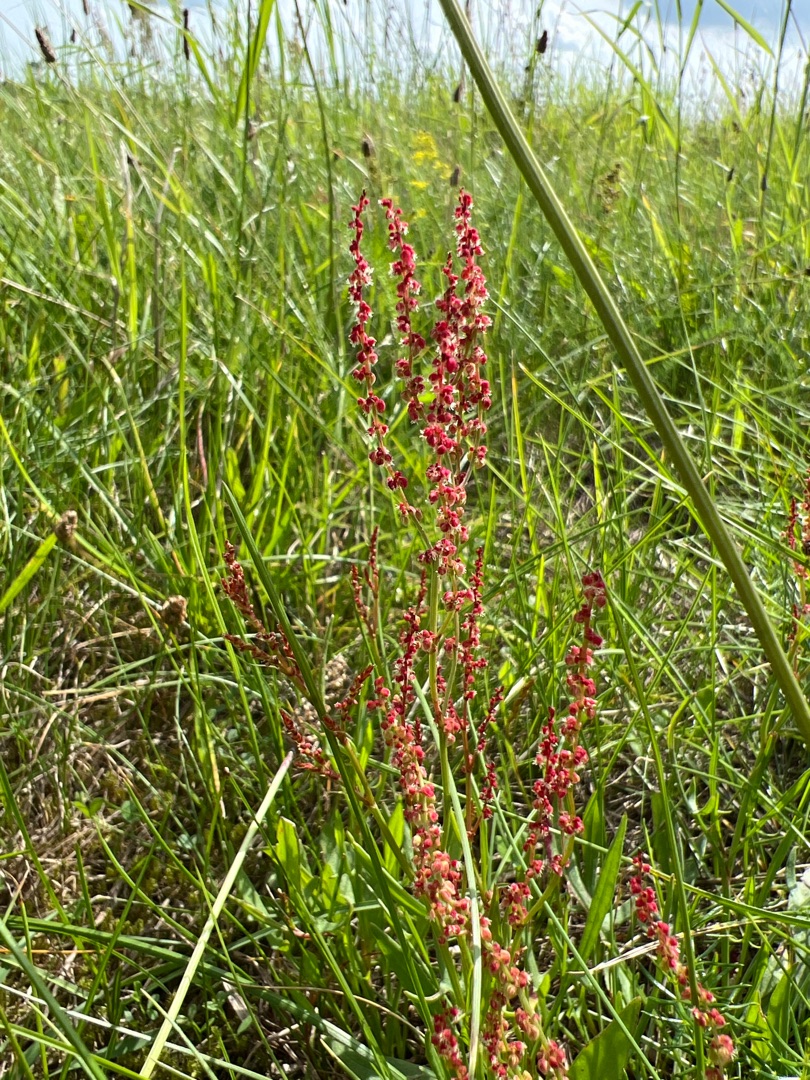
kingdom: Plantae
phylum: Tracheophyta
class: Magnoliopsida
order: Caryophyllales
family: Polygonaceae
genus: Rumex
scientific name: Rumex acetosella
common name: Rødknæ
